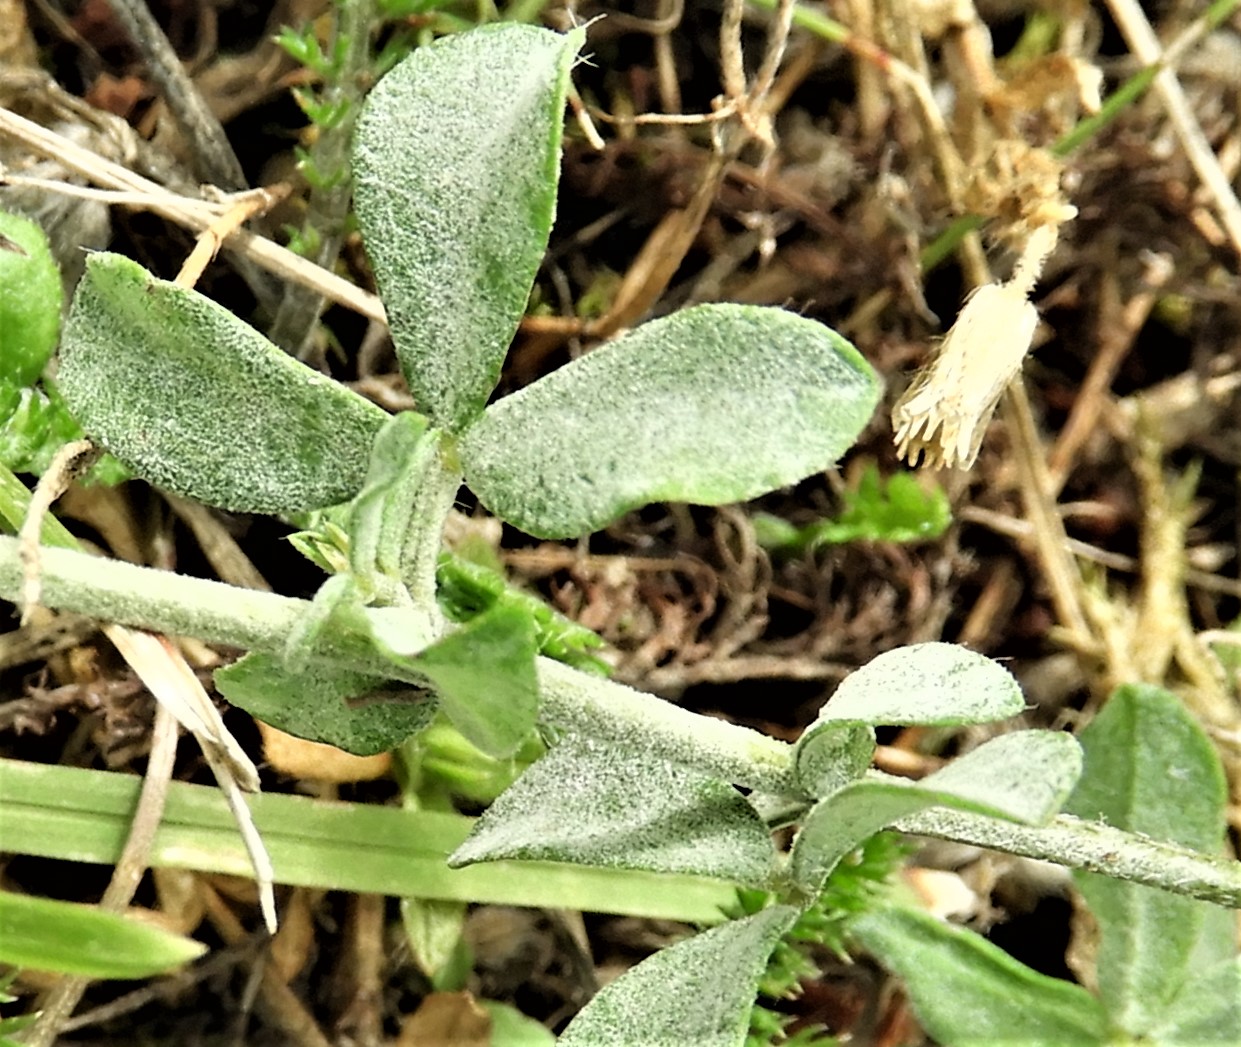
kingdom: Fungi
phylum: Ascomycota
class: Leotiomycetes
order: Helotiales
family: Erysiphaceae
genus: Erysiphe
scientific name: Erysiphe trifoliorum
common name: kløver-meldug
